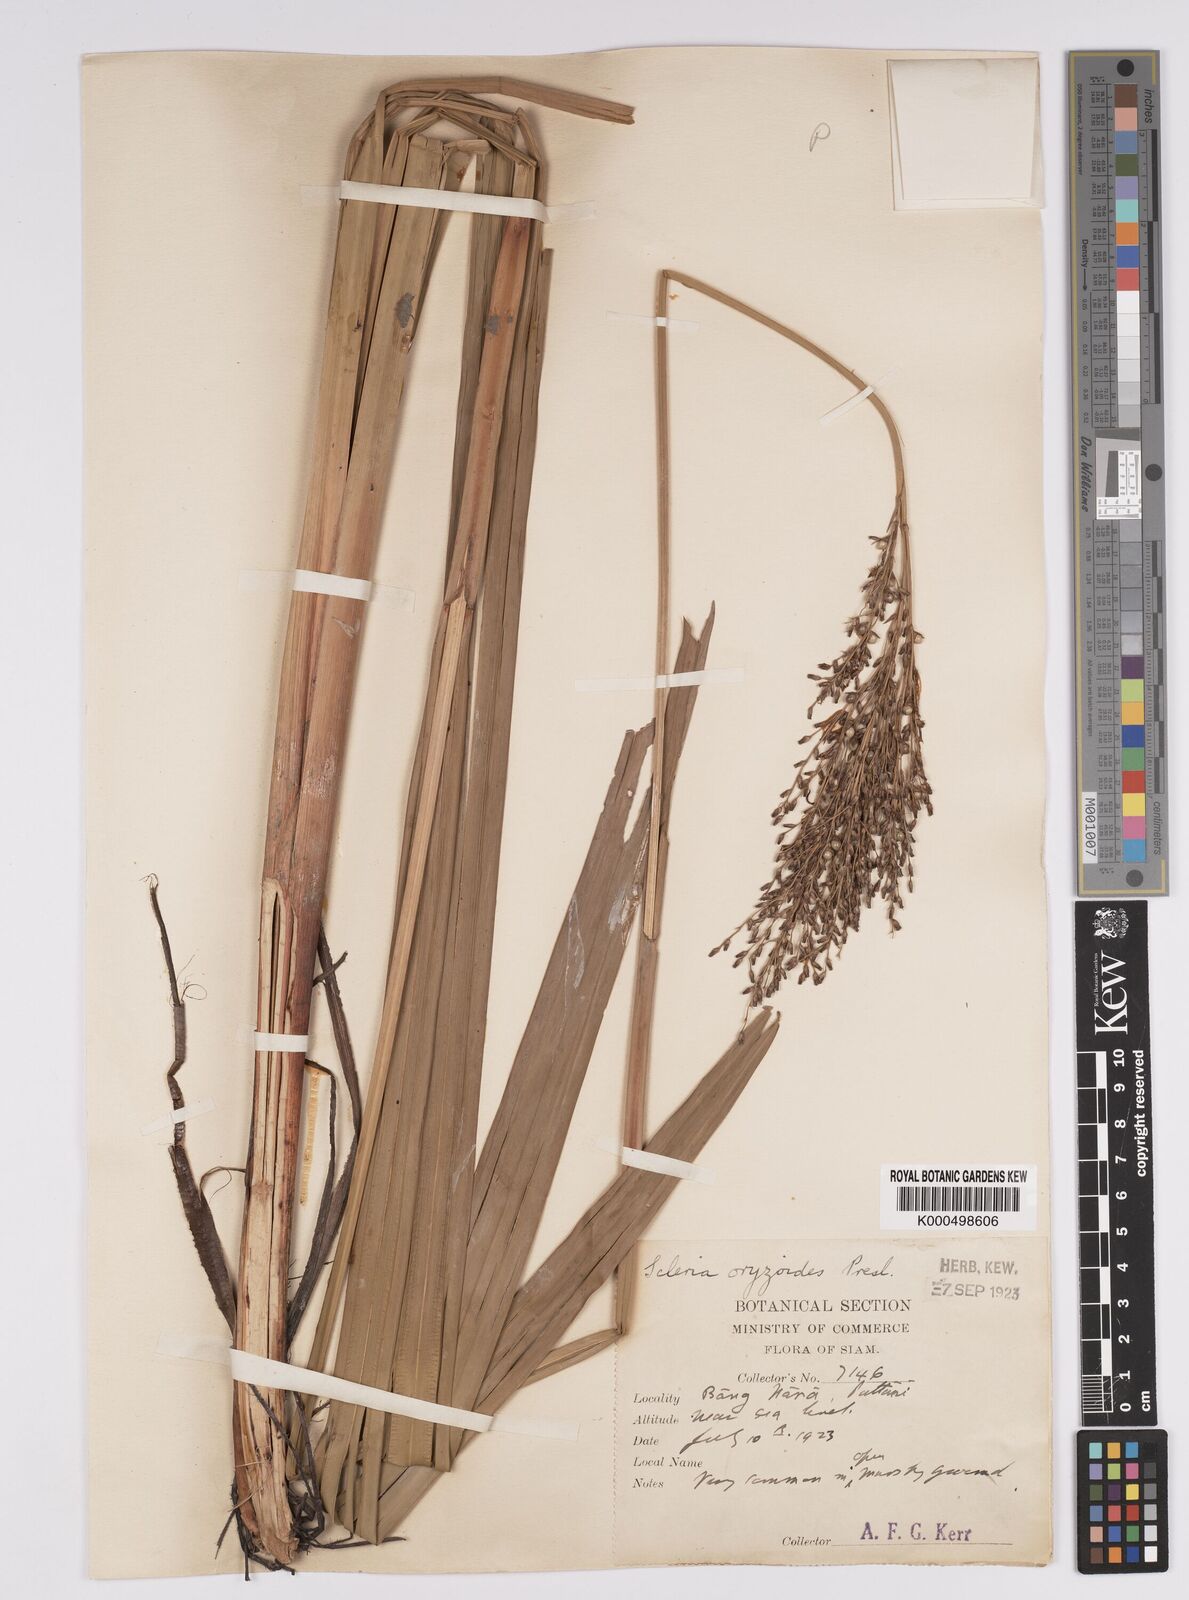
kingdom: Plantae
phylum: Tracheophyta
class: Liliopsida
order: Poales
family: Cyperaceae
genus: Scleria
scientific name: Scleria poiformis
